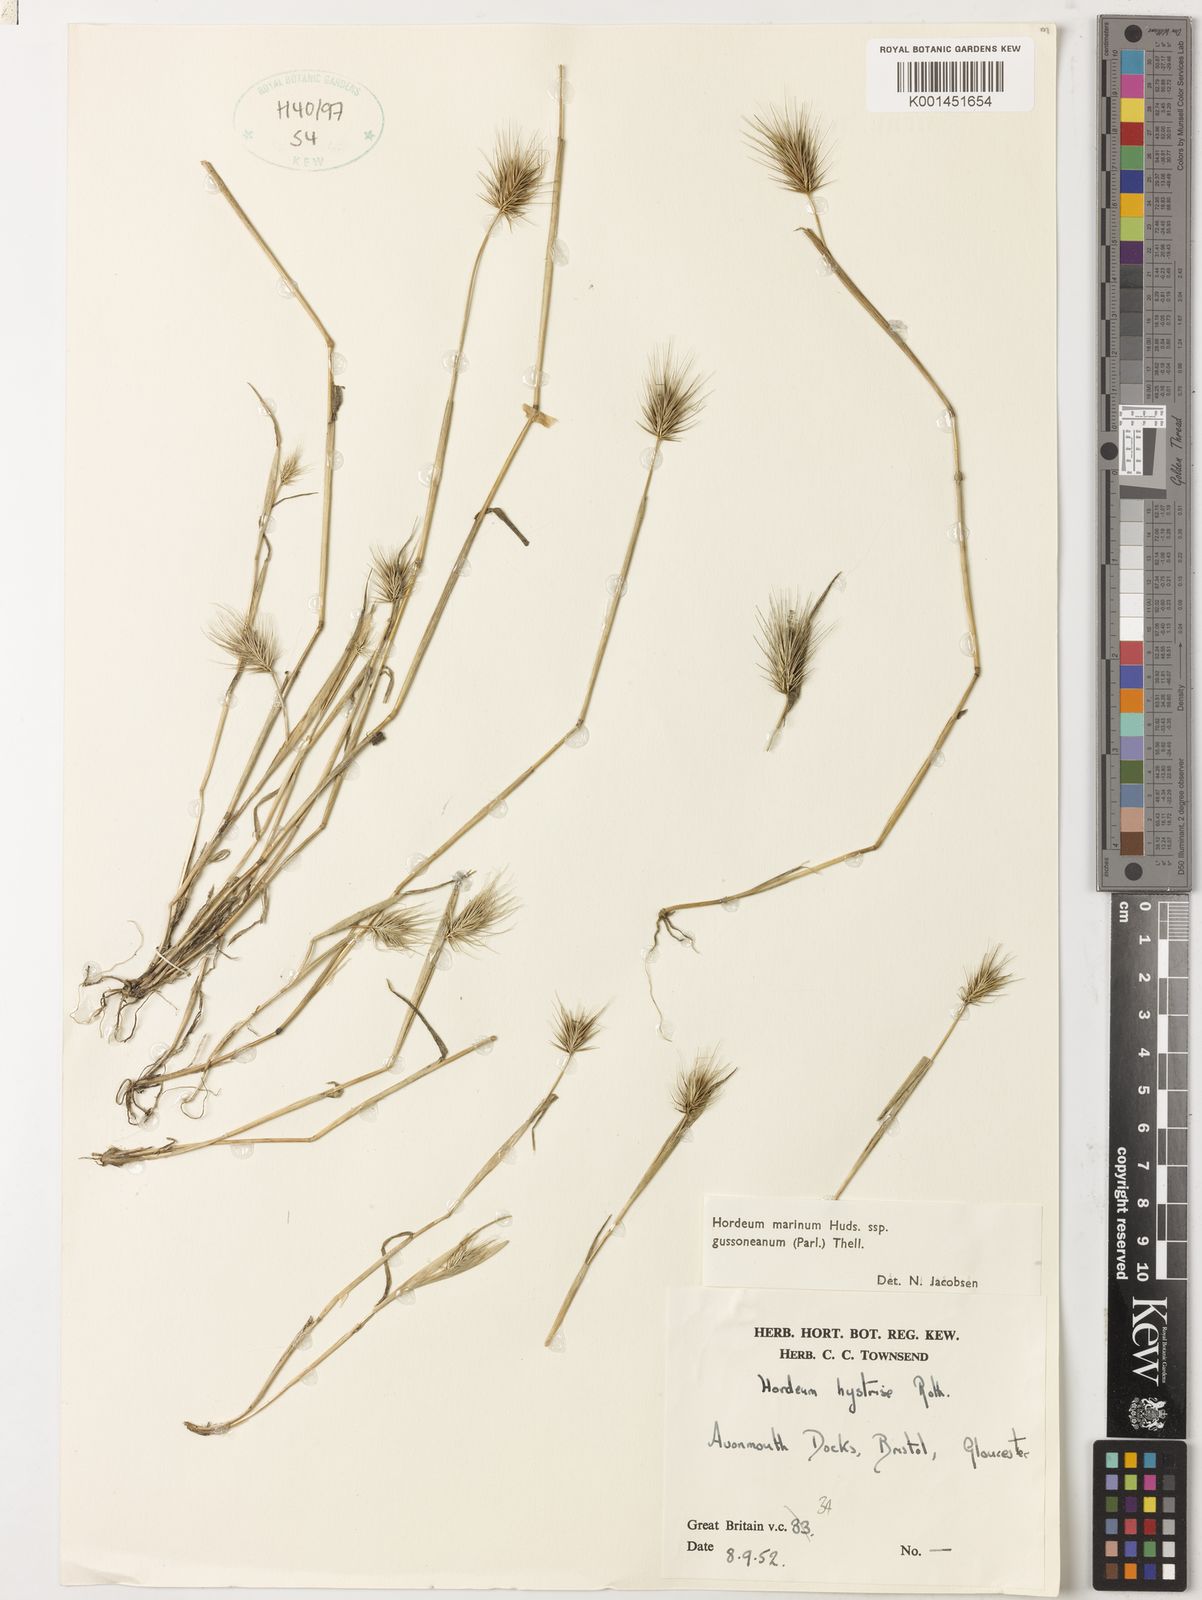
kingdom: Plantae
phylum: Tracheophyta
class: Liliopsida
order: Poales
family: Poaceae
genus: Hordeum
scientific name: Hordeum marinum
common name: Sea barley
